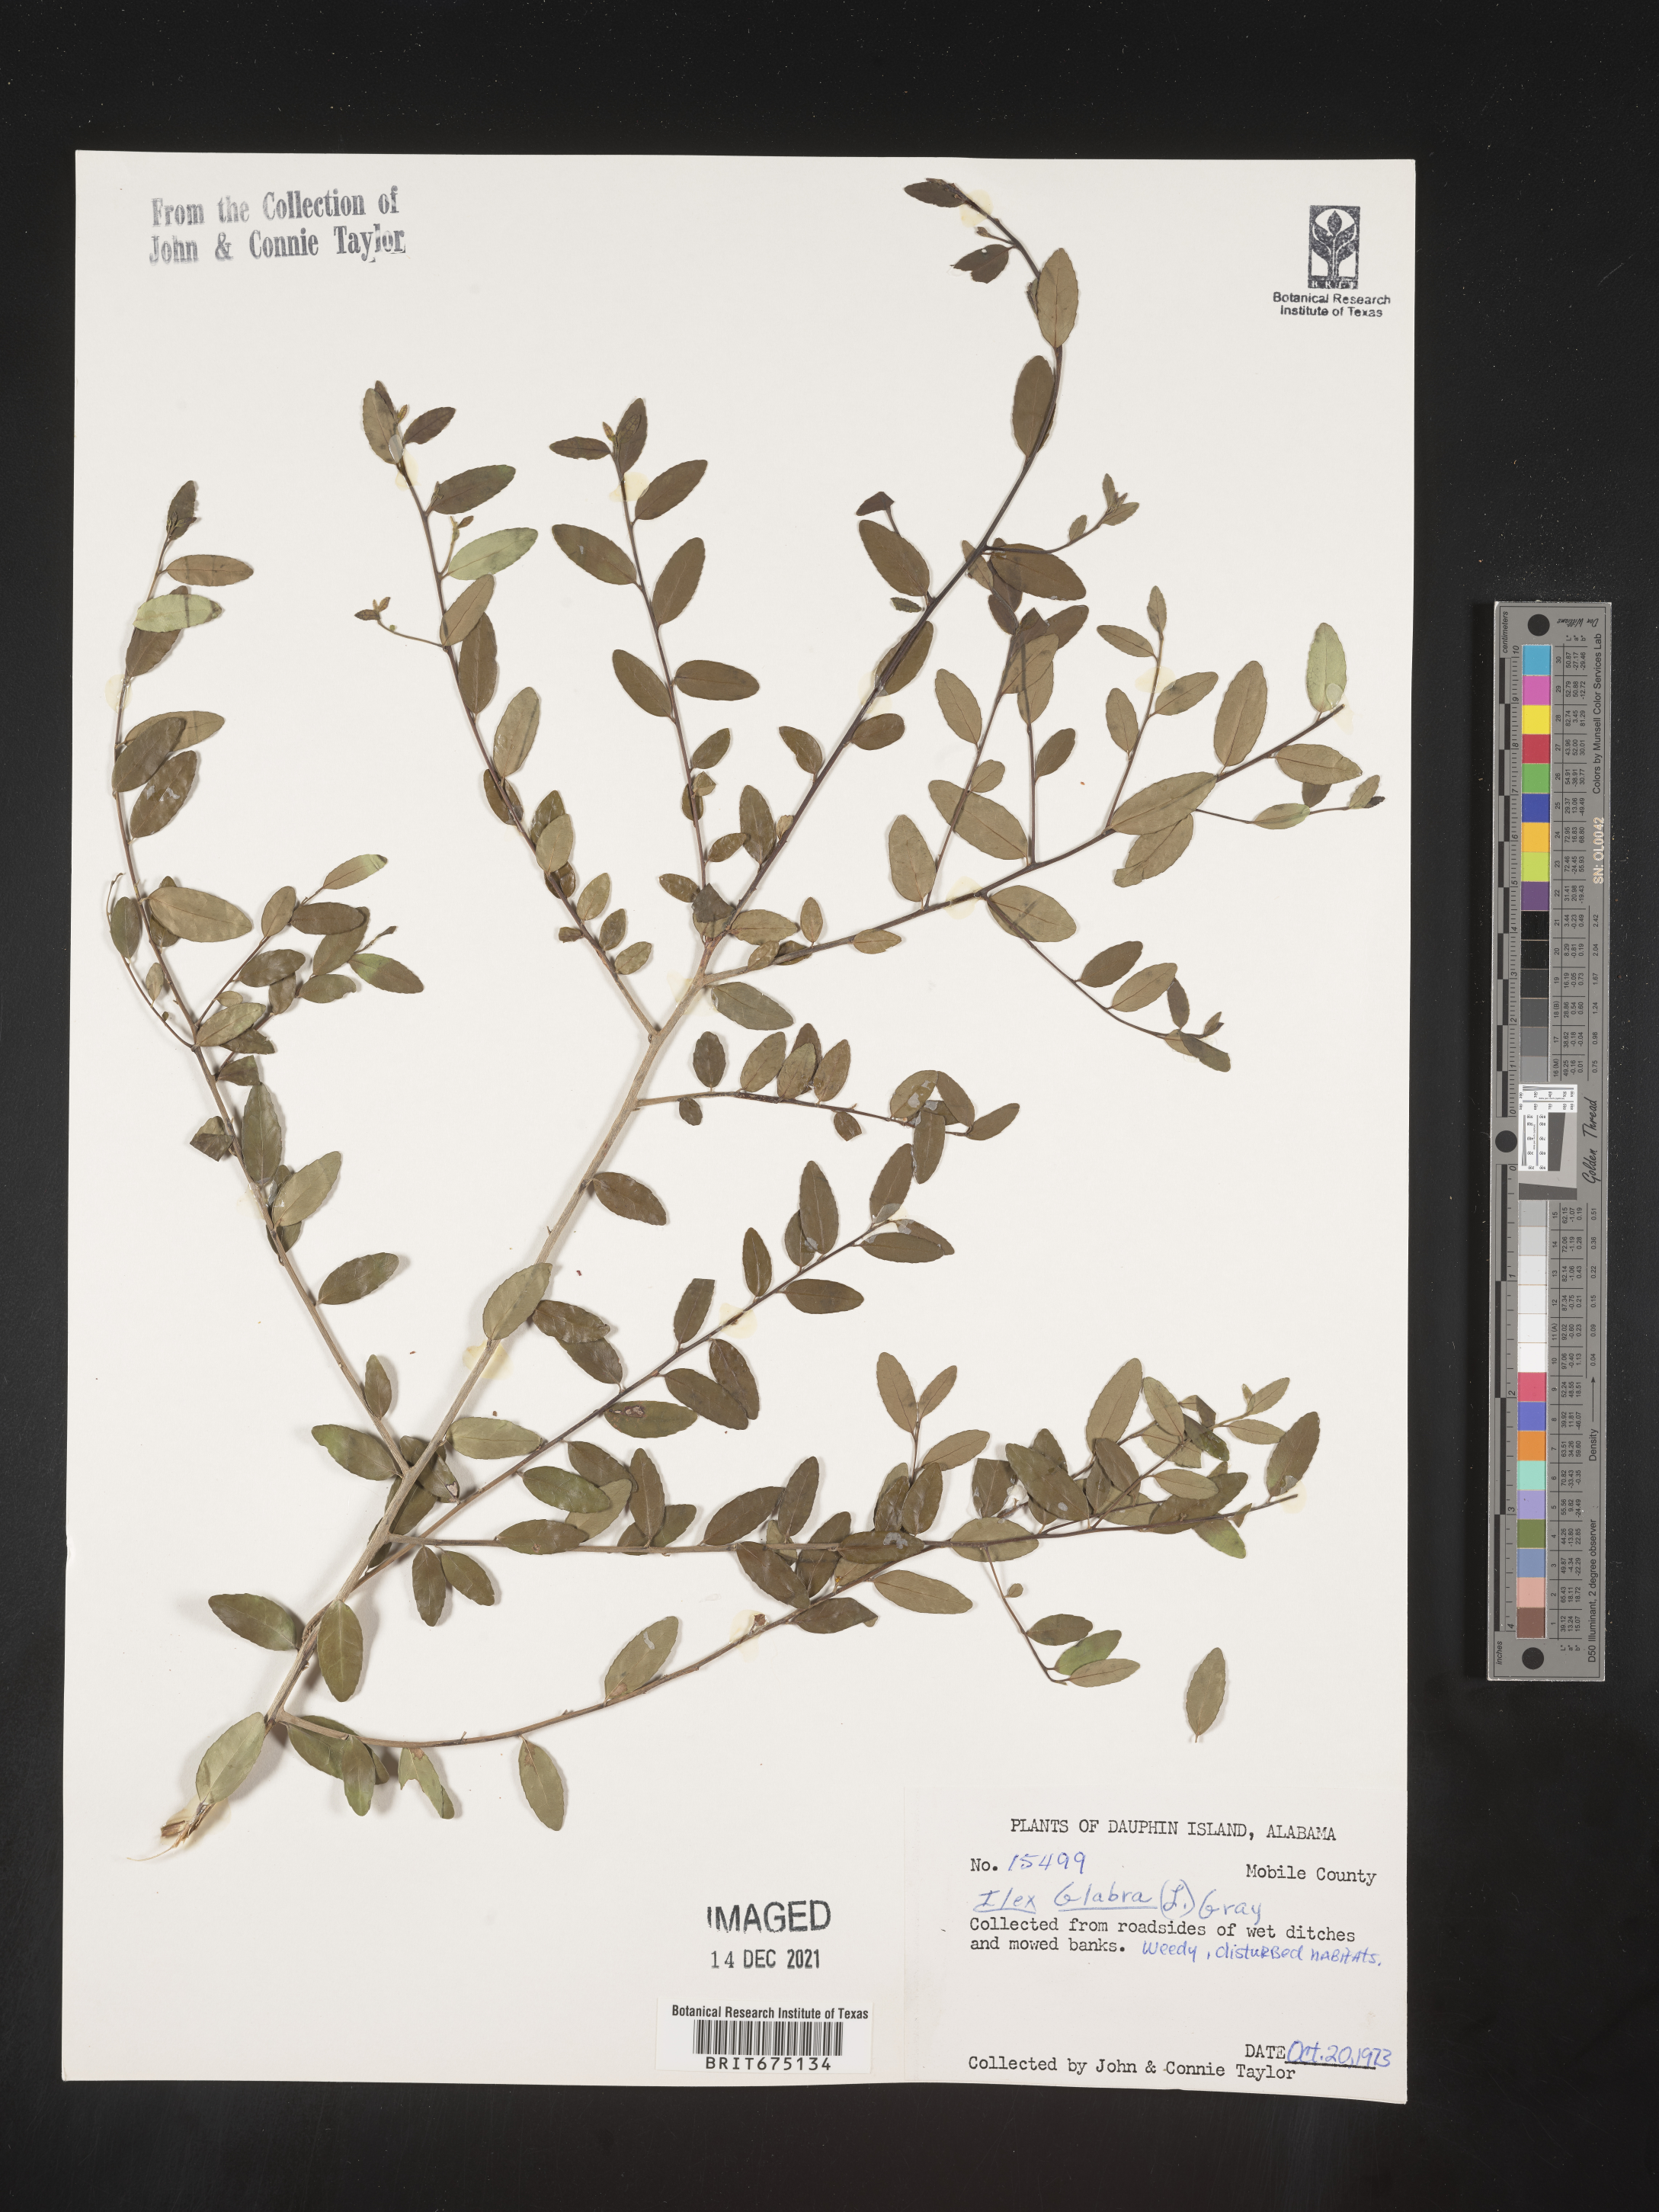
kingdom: Plantae
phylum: Tracheophyta
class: Magnoliopsida
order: Aquifoliales
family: Aquifoliaceae
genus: Ilex
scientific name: Ilex glabra
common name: Bitter gallberry
